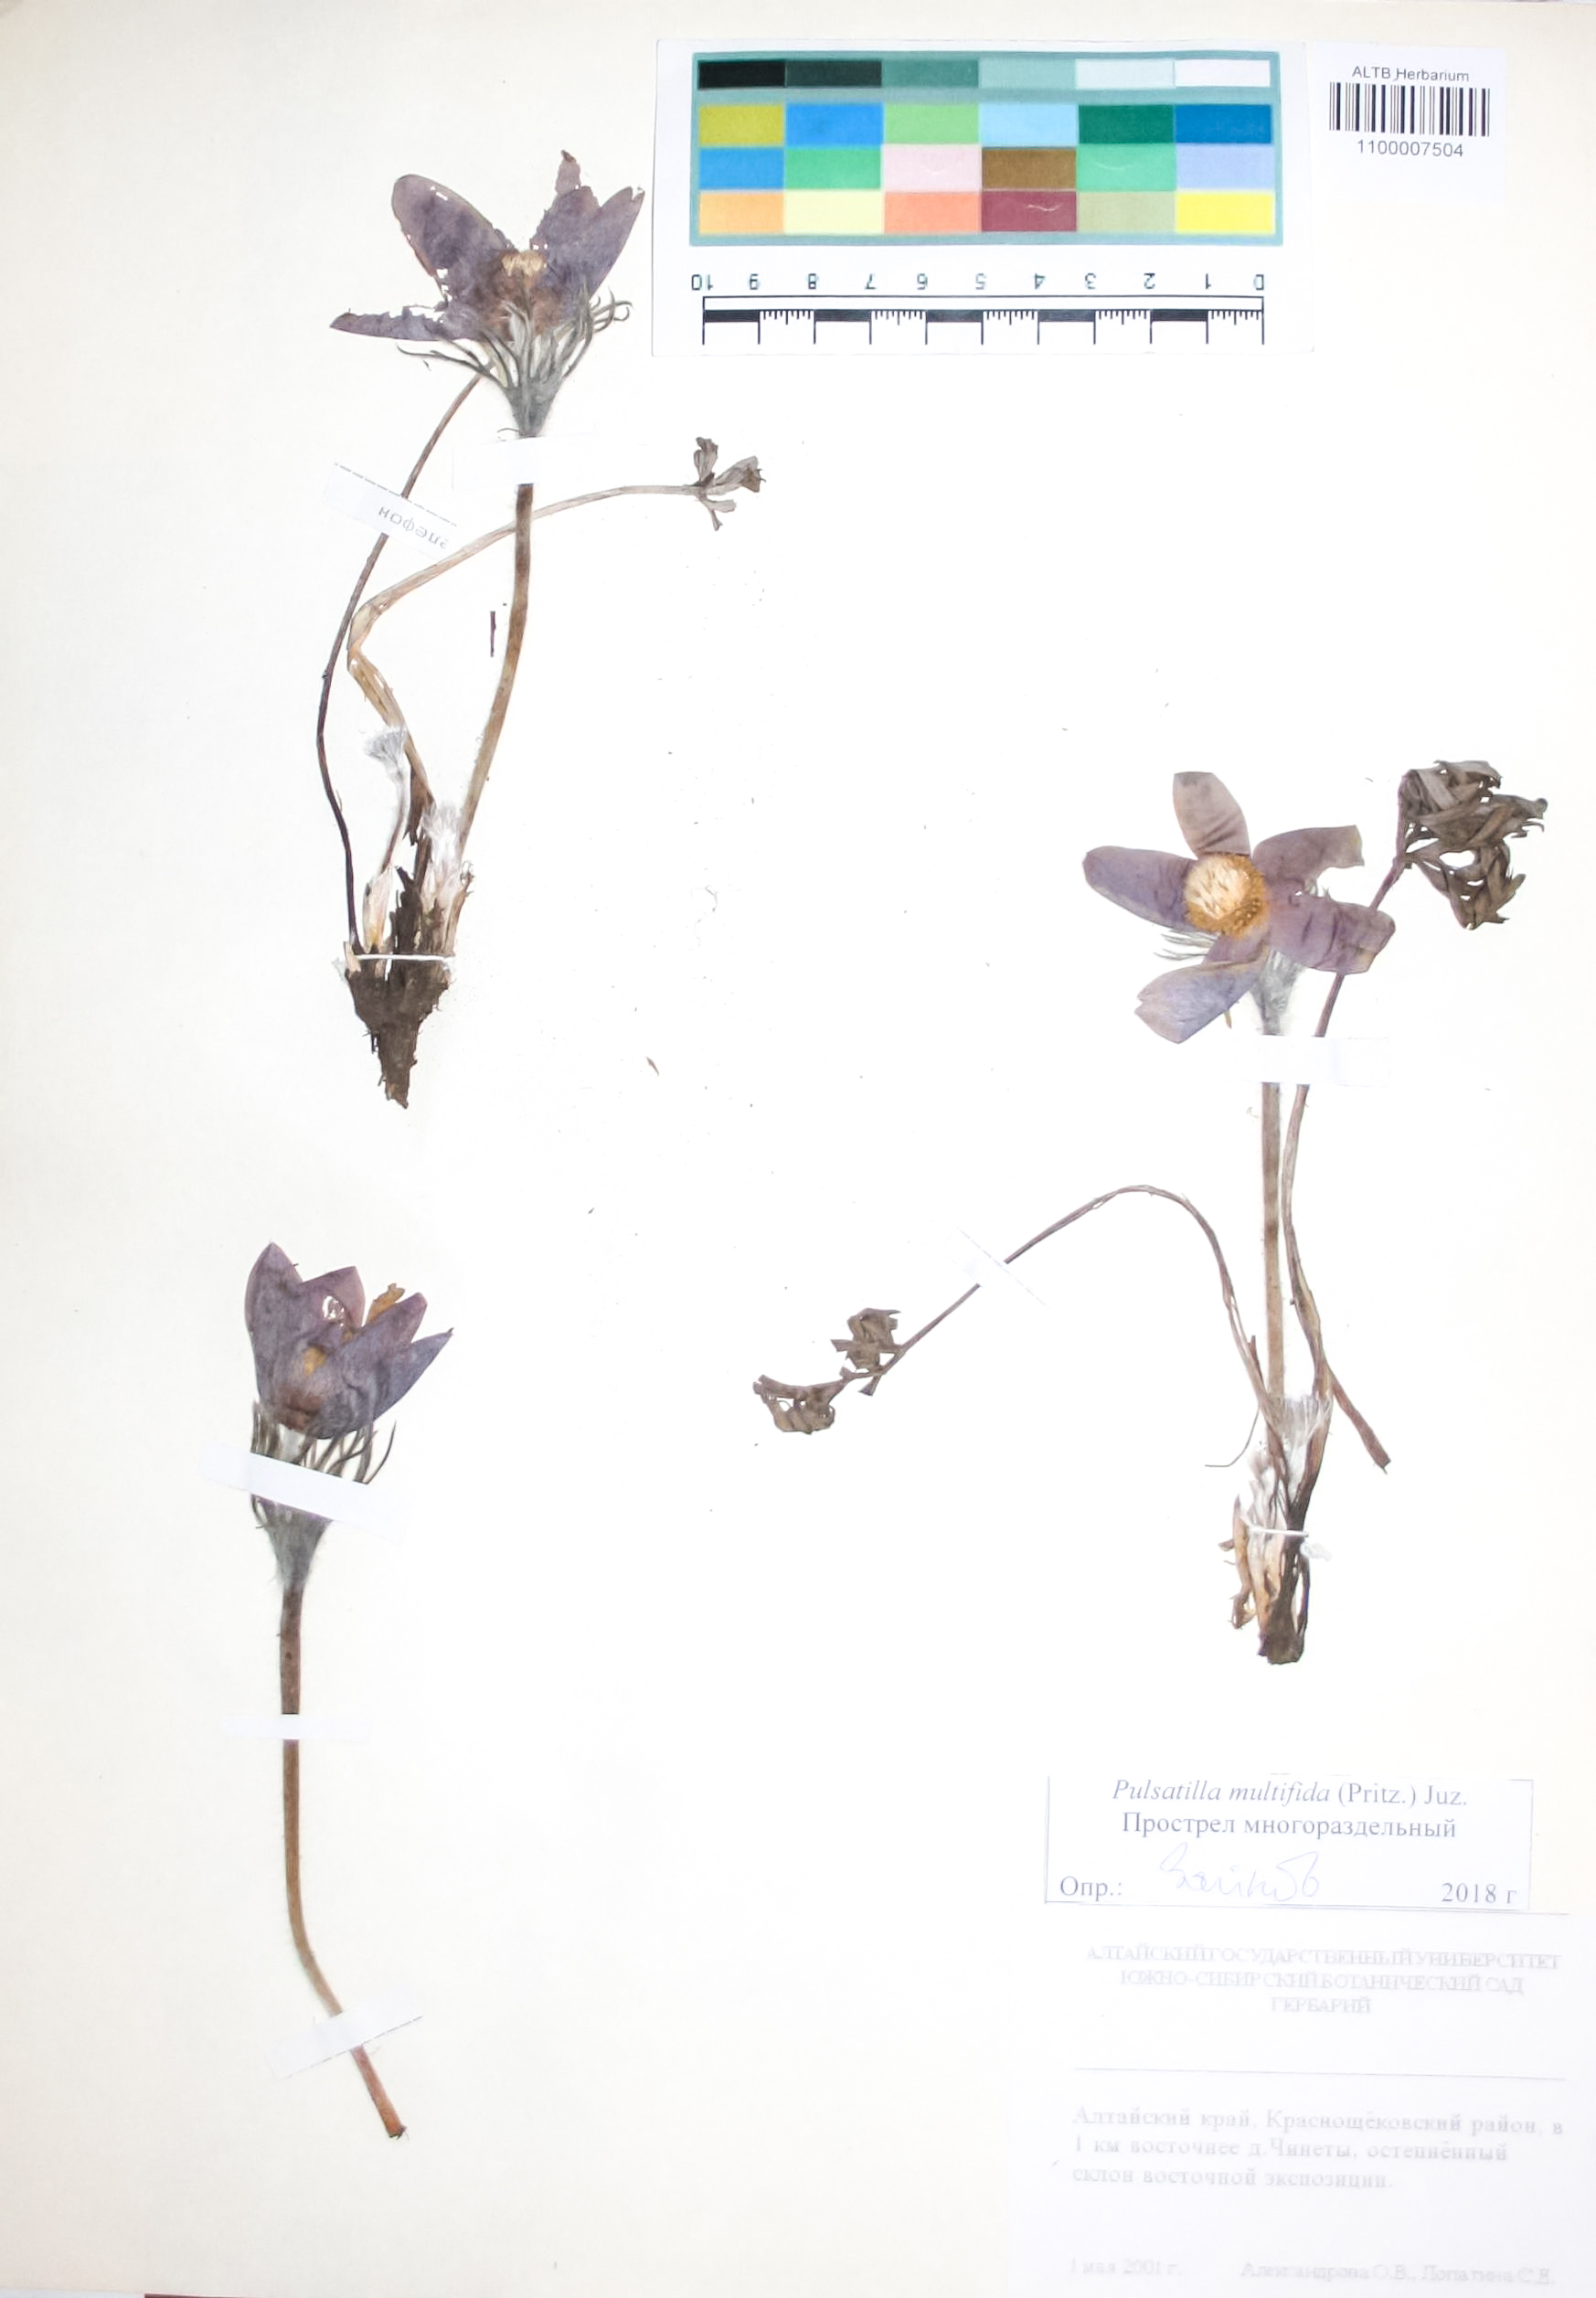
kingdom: Plantae
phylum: Tracheophyta
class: Magnoliopsida
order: Ranunculales
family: Ranunculaceae
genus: Pulsatilla
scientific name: Pulsatilla patens
